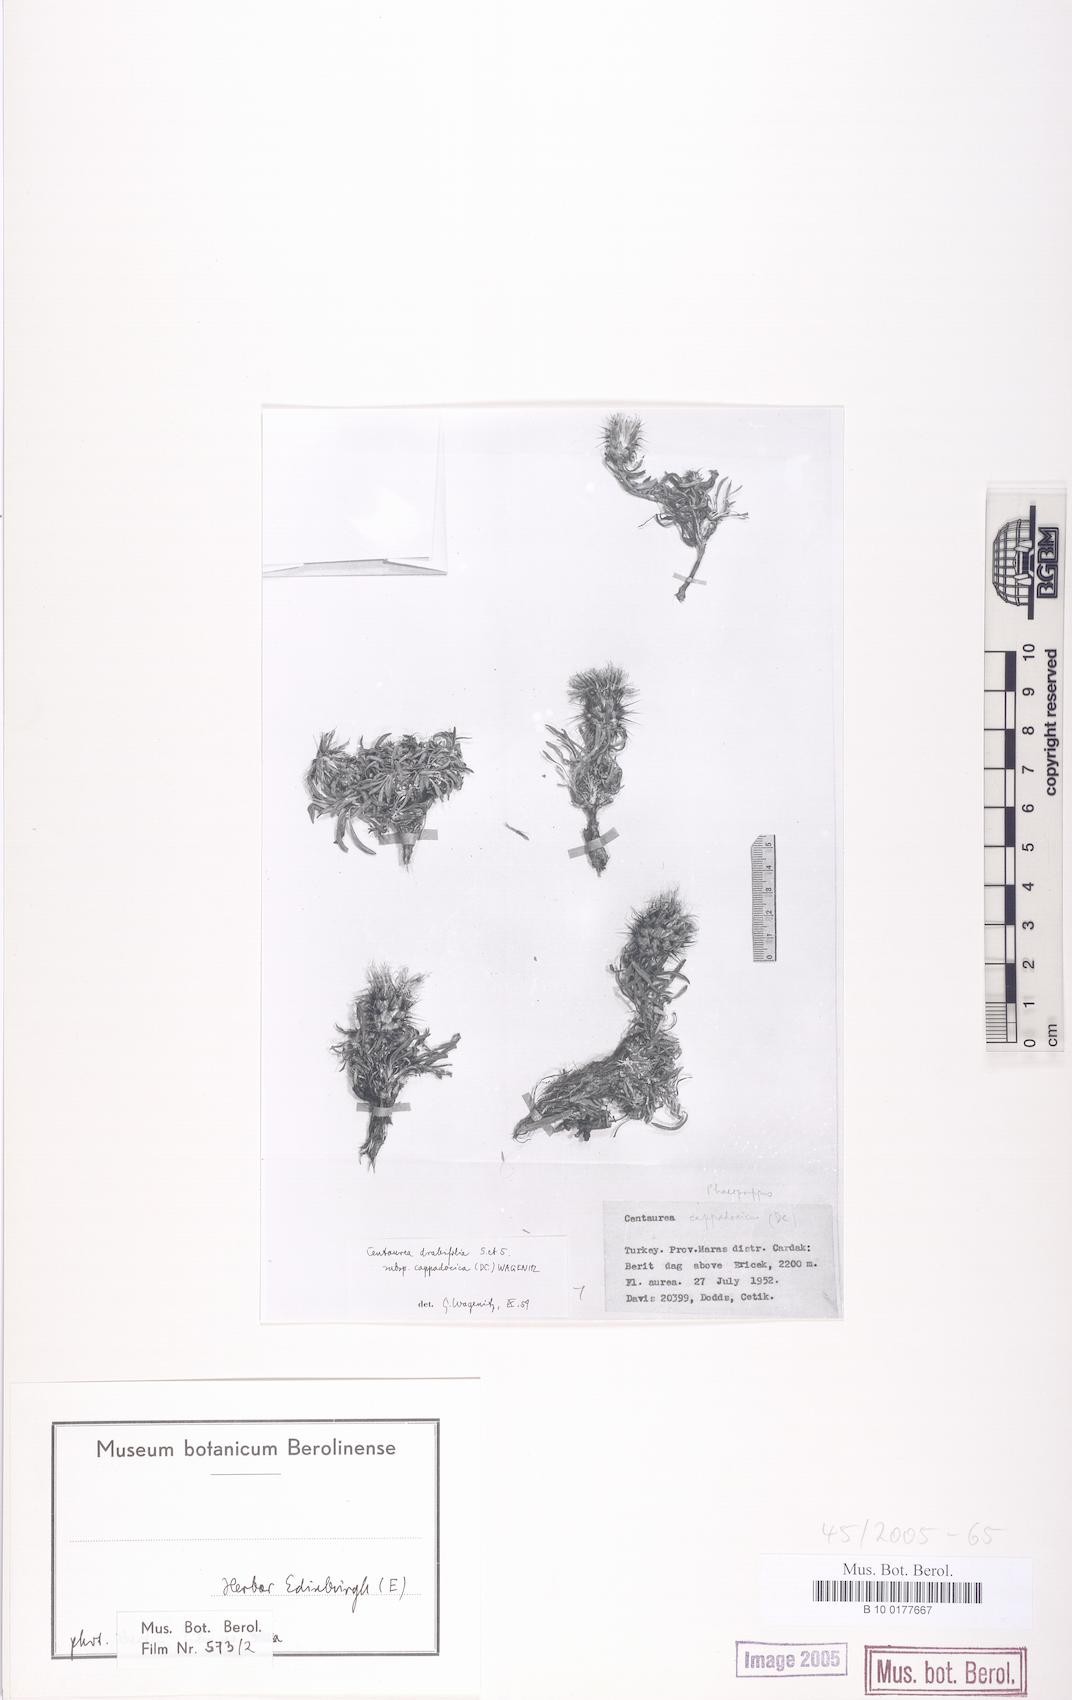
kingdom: Plantae
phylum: Tracheophyta
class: Magnoliopsida
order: Asterales
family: Asteraceae
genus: Centaurea
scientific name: Centaurea drabifolia
